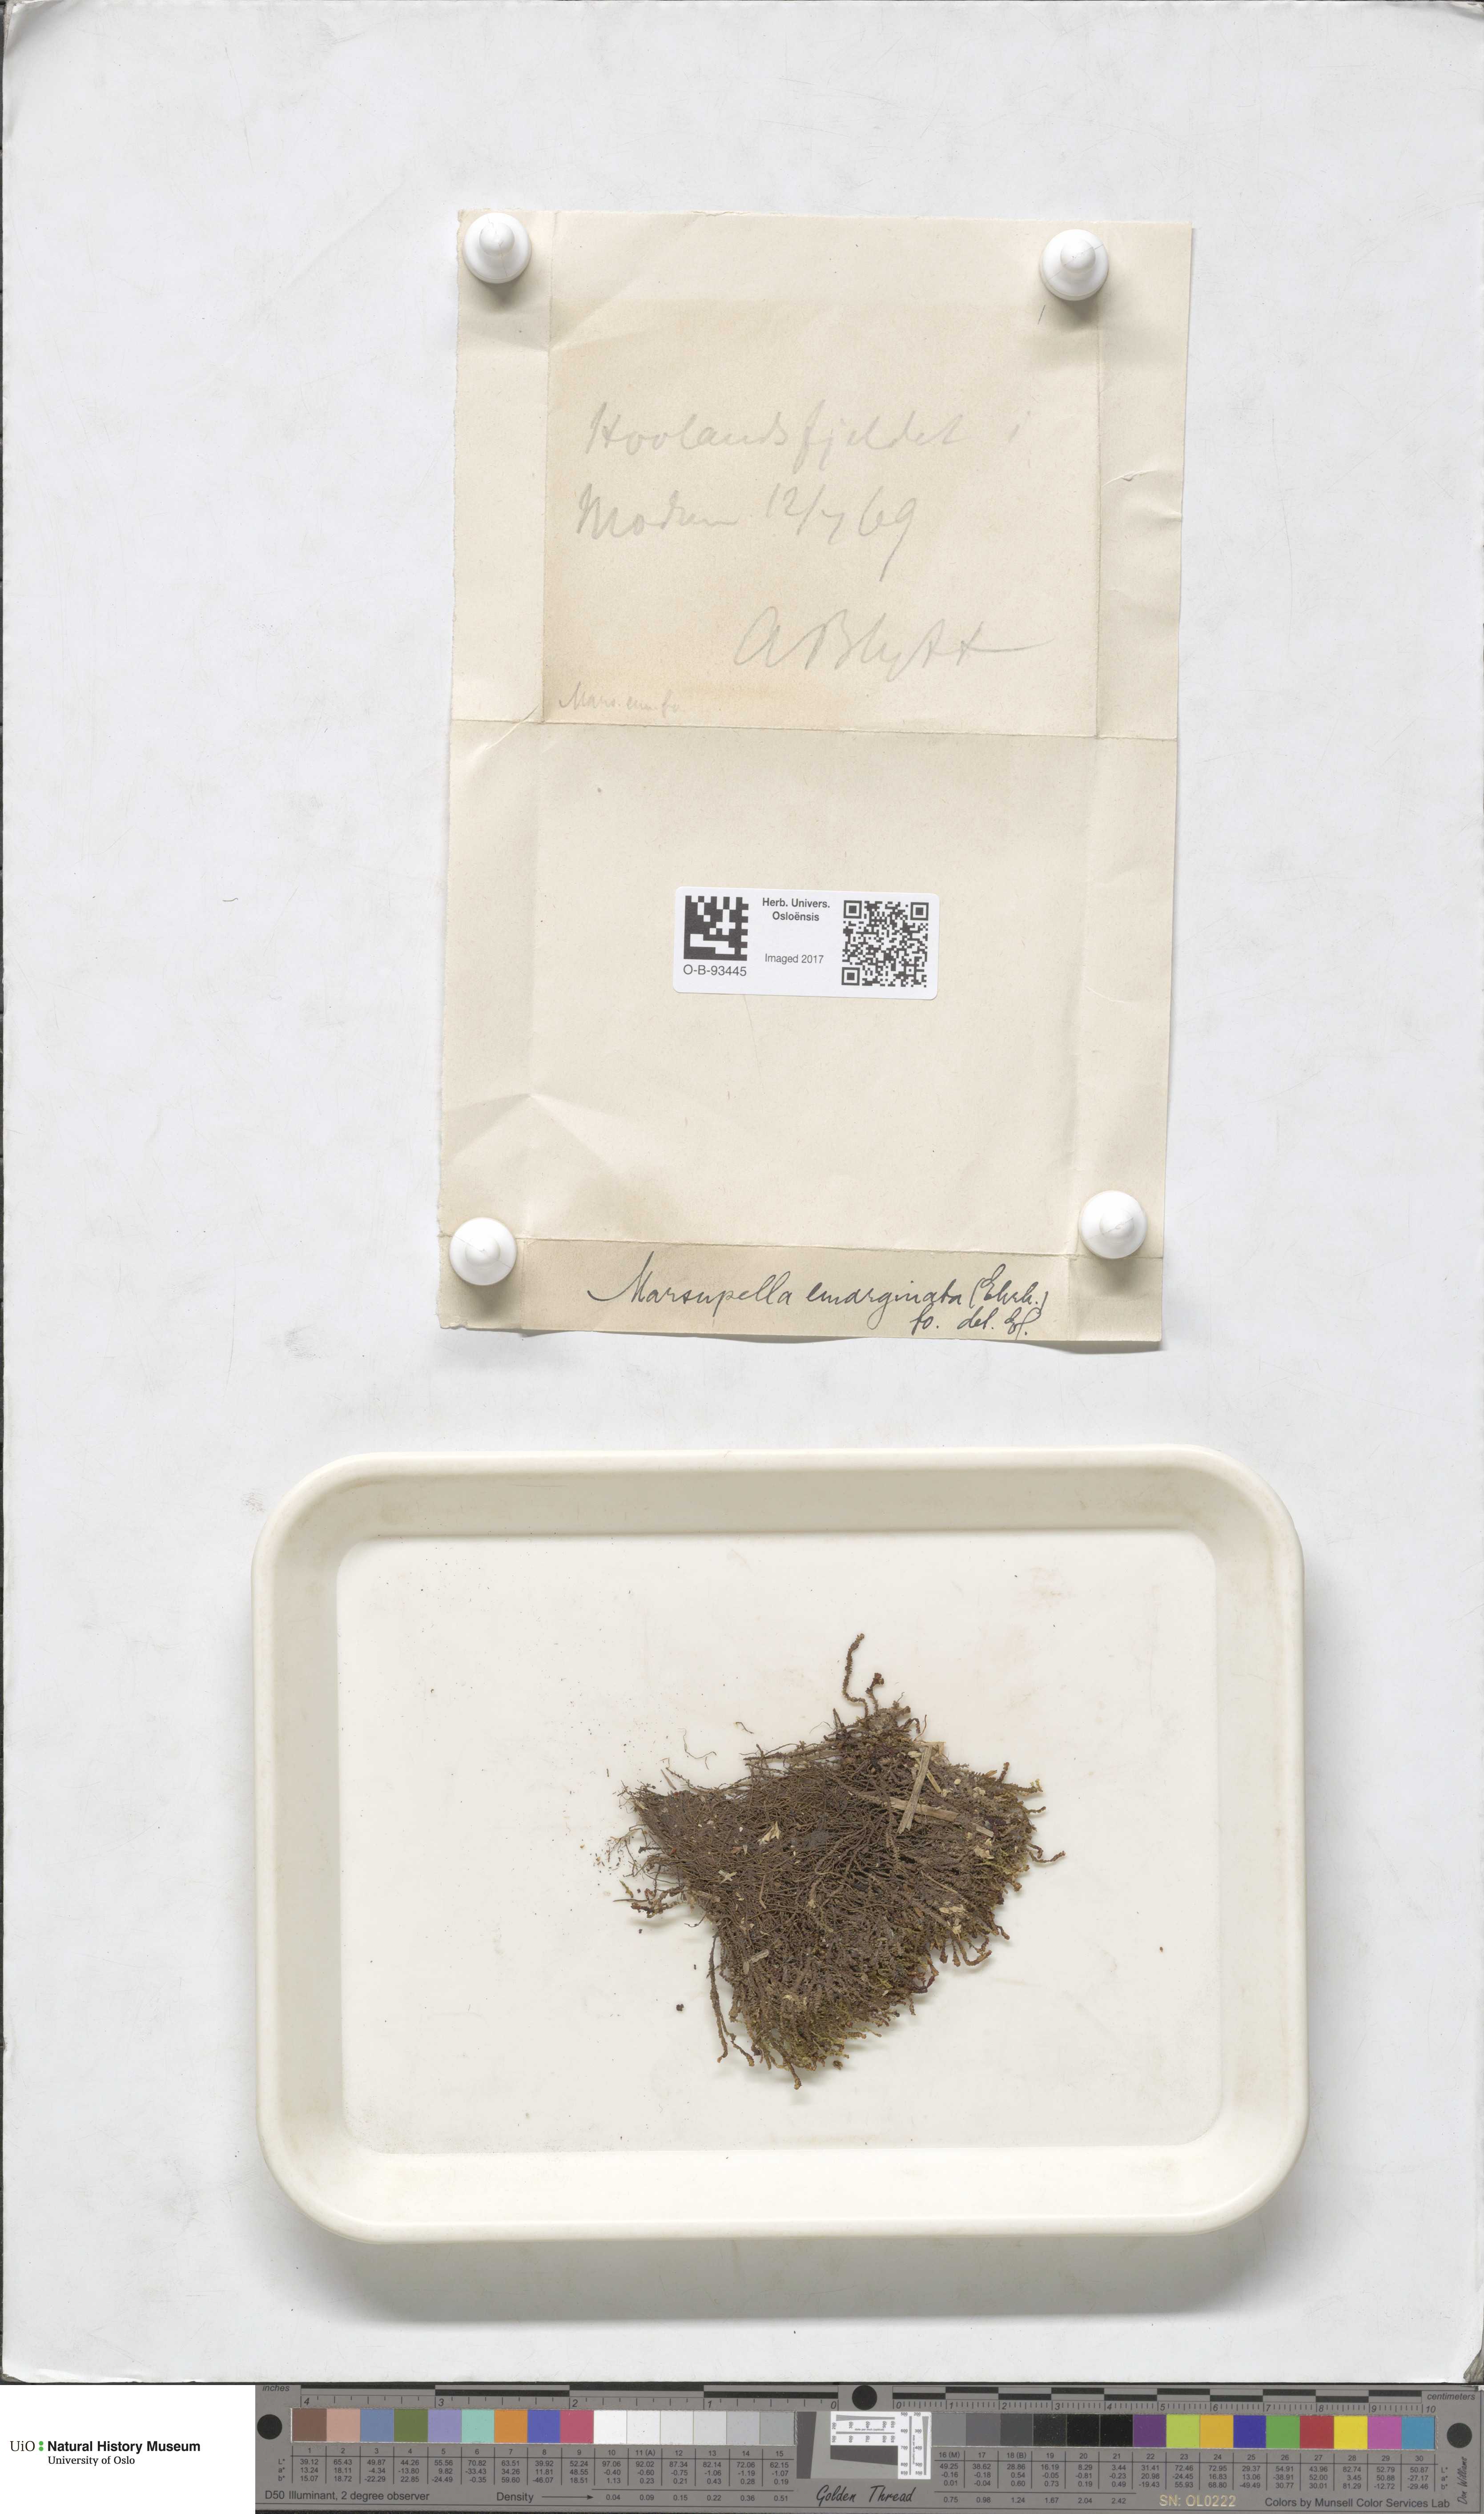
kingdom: Plantae
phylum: Marchantiophyta
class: Jungermanniopsida
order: Jungermanniales
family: Gymnomitriaceae
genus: Gymnomitrion
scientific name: Gymnomitrion brevissimum
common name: Snow rustwort
